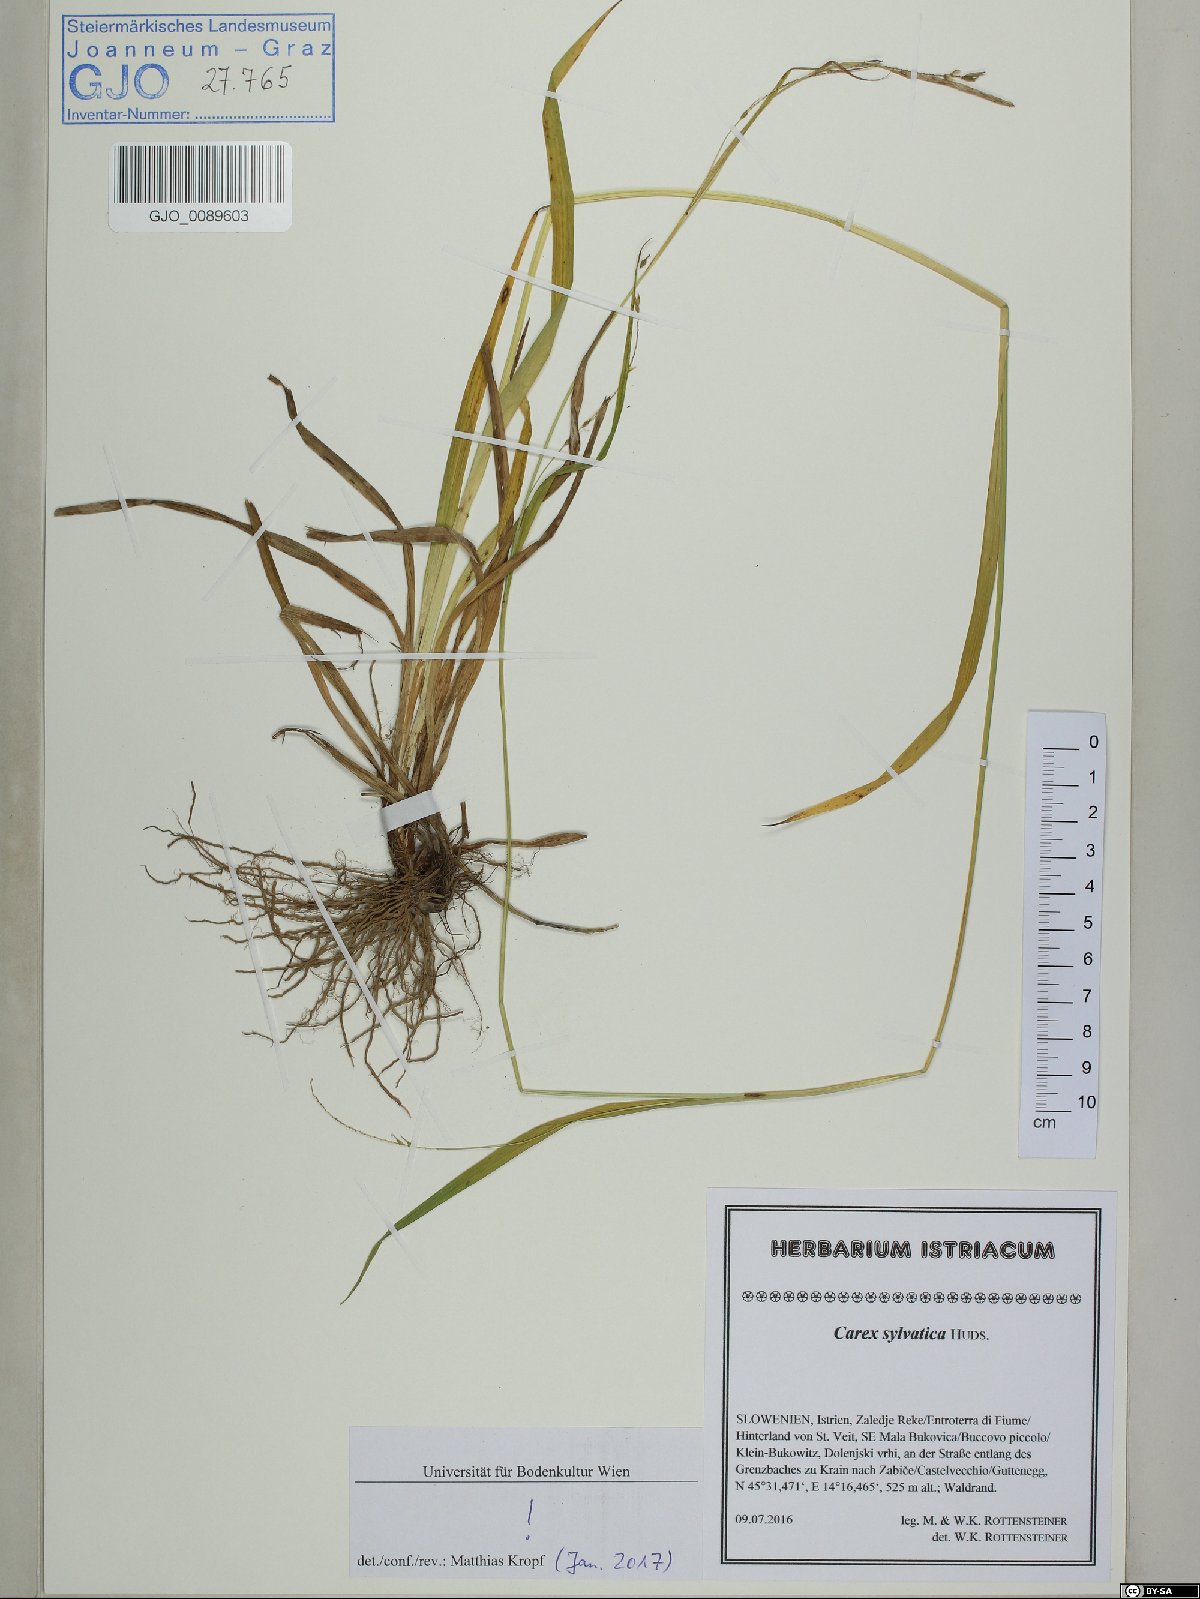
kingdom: Plantae
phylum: Tracheophyta
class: Liliopsida
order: Poales
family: Cyperaceae
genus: Carex
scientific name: Carex sylvatica
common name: Wood-sedge
